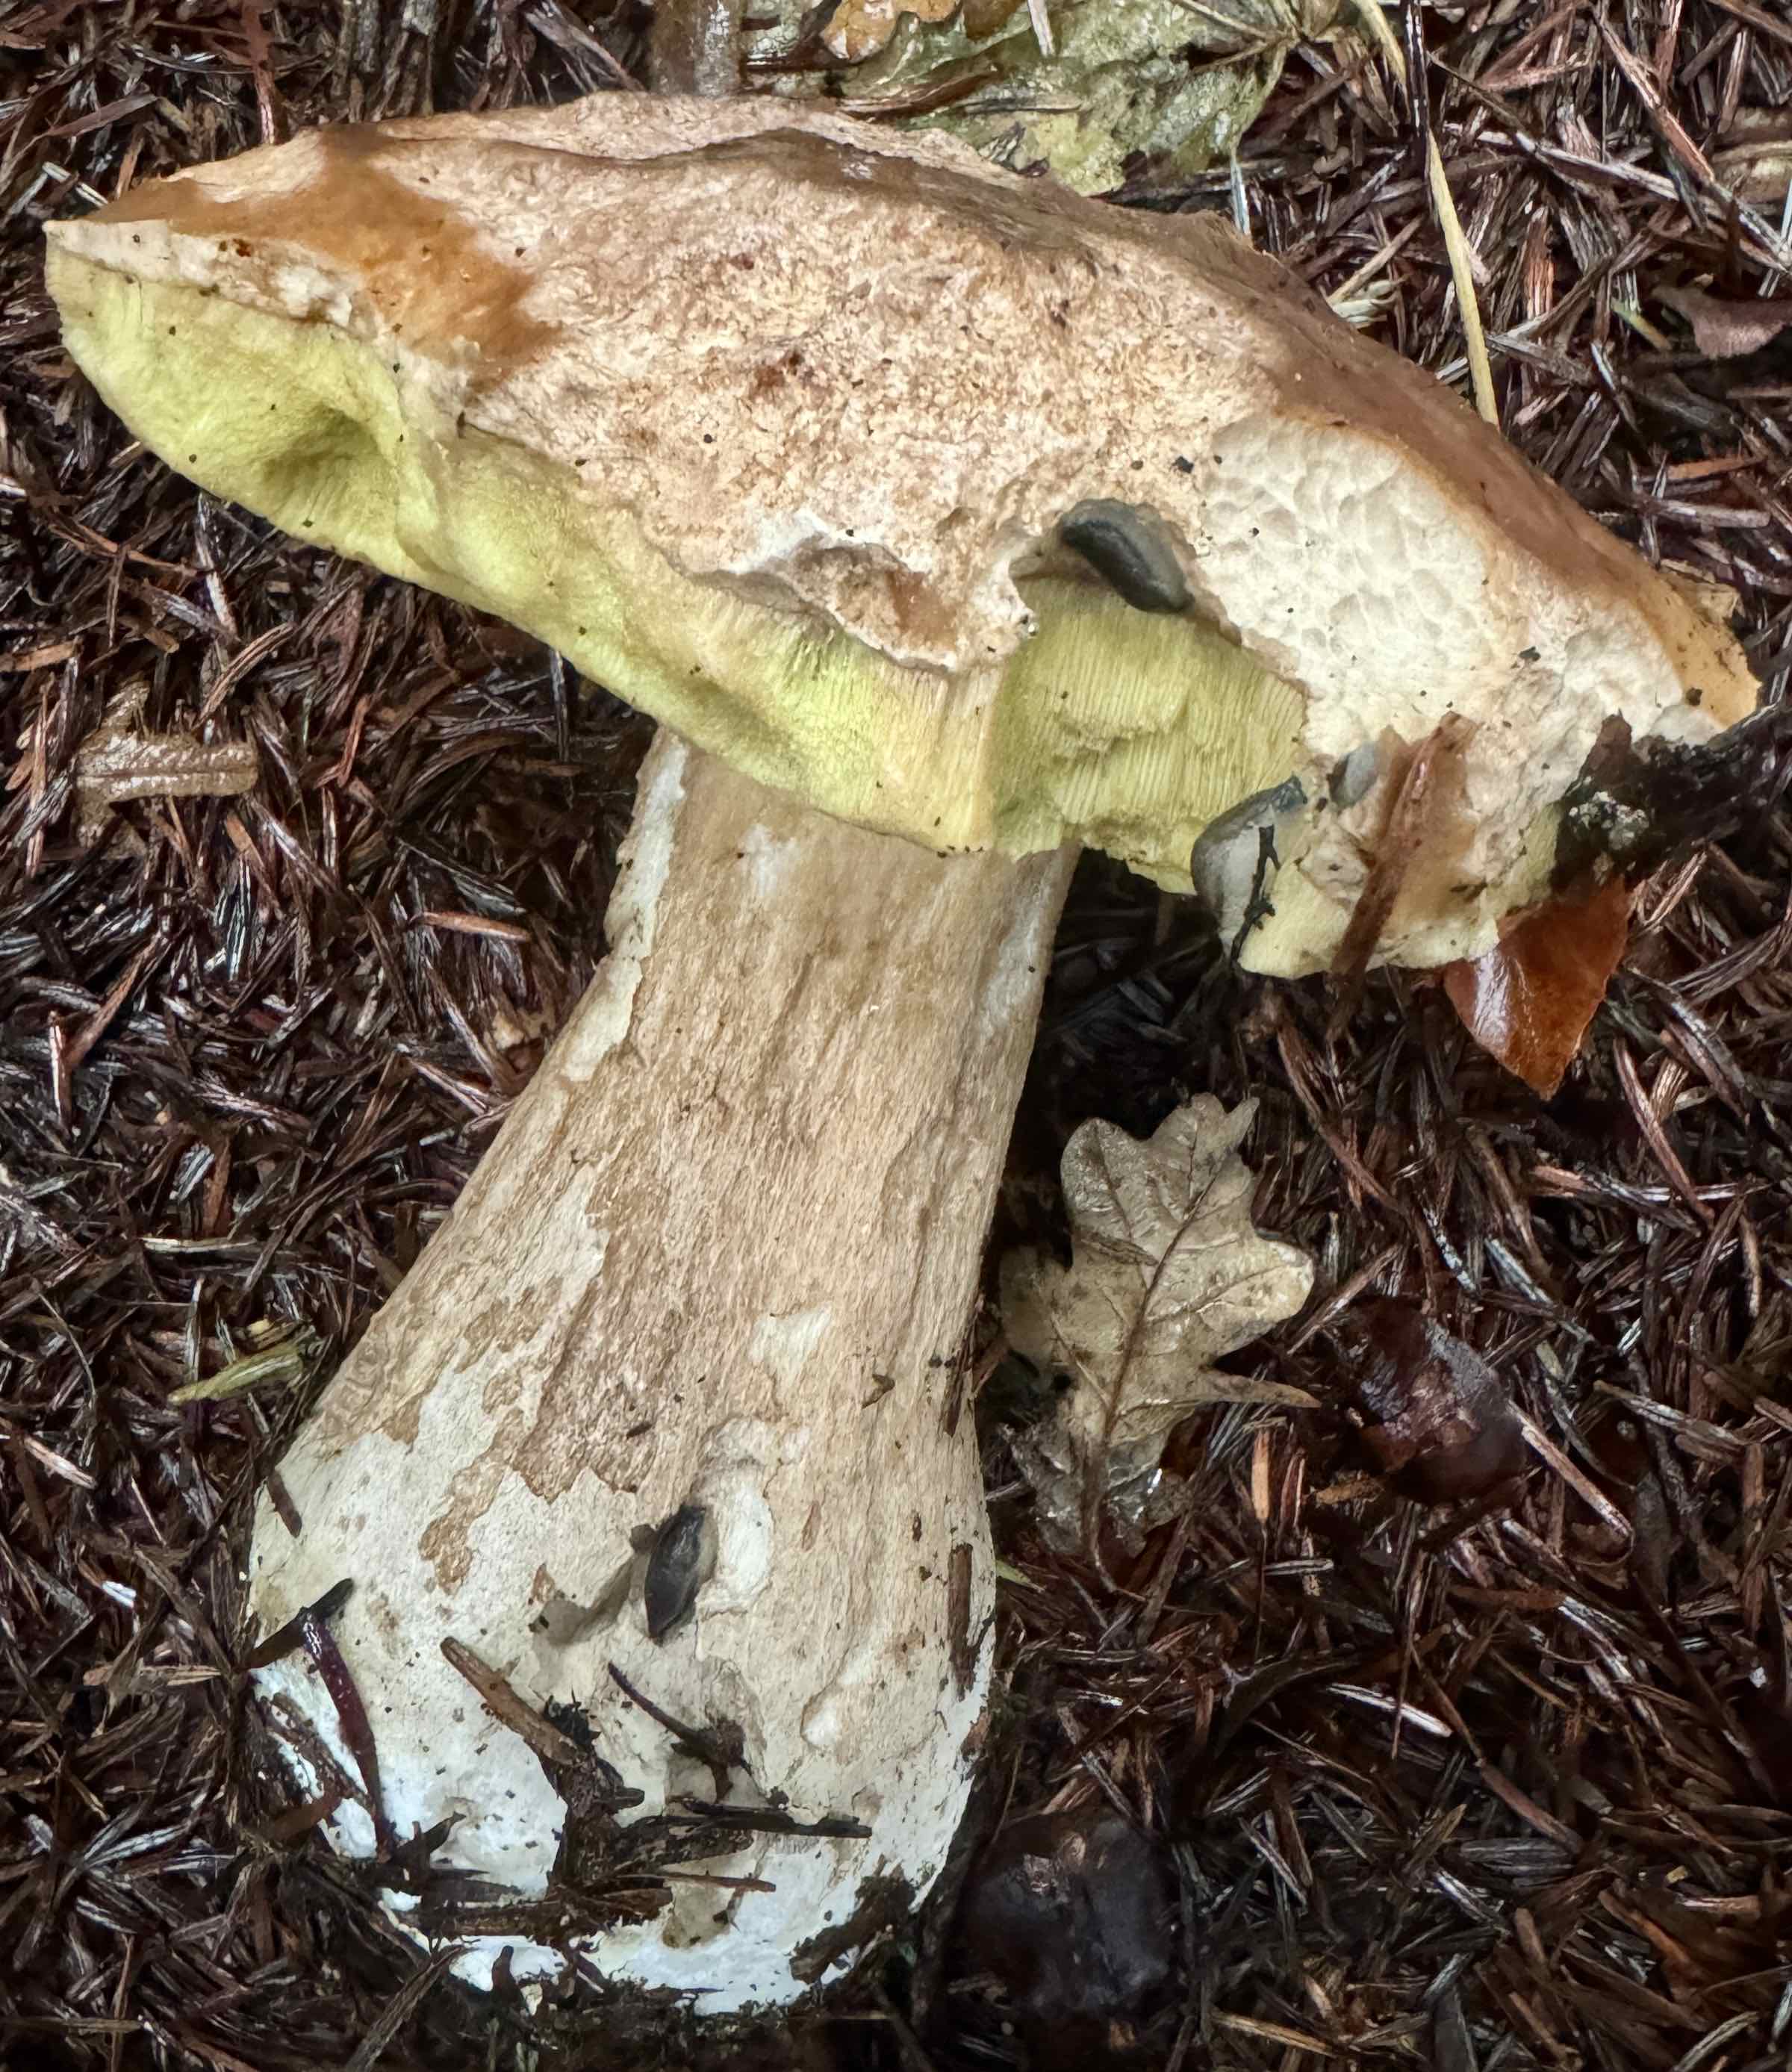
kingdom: Fungi
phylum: Basidiomycota
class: Agaricomycetes
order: Boletales
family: Boletaceae
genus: Boletus
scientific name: Boletus edulis
